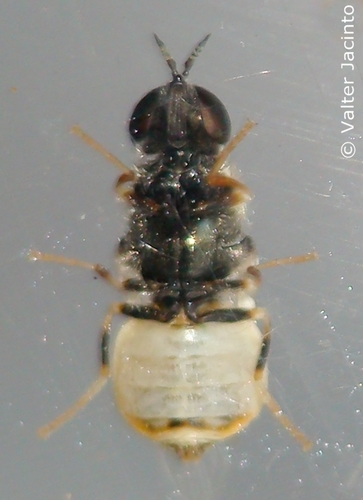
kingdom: Animalia
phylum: Arthropoda
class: Insecta
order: Diptera
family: Stratiomyidae
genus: Nemotelus
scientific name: Nemotelus cylindricornis
